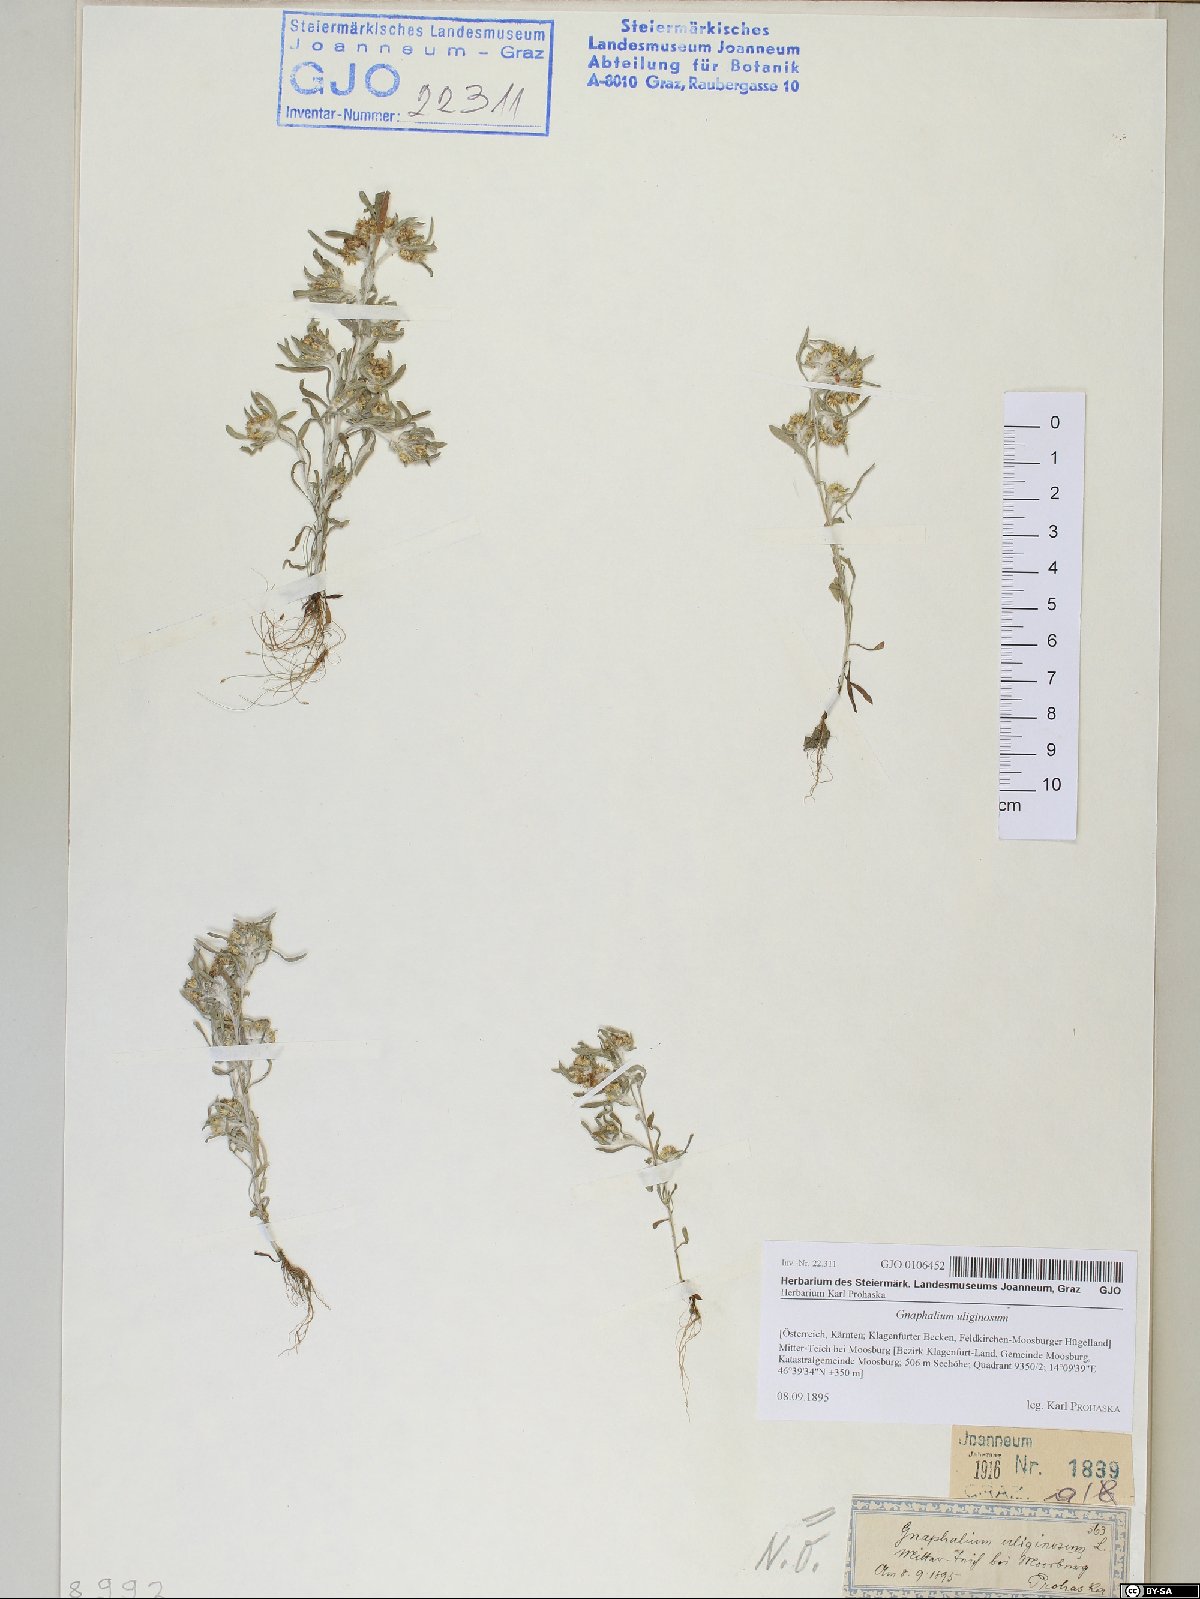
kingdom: Plantae
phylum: Tracheophyta
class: Magnoliopsida
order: Asterales
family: Asteraceae
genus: Gnaphalium
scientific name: Gnaphalium uliginosum
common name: Marsh cudweed
